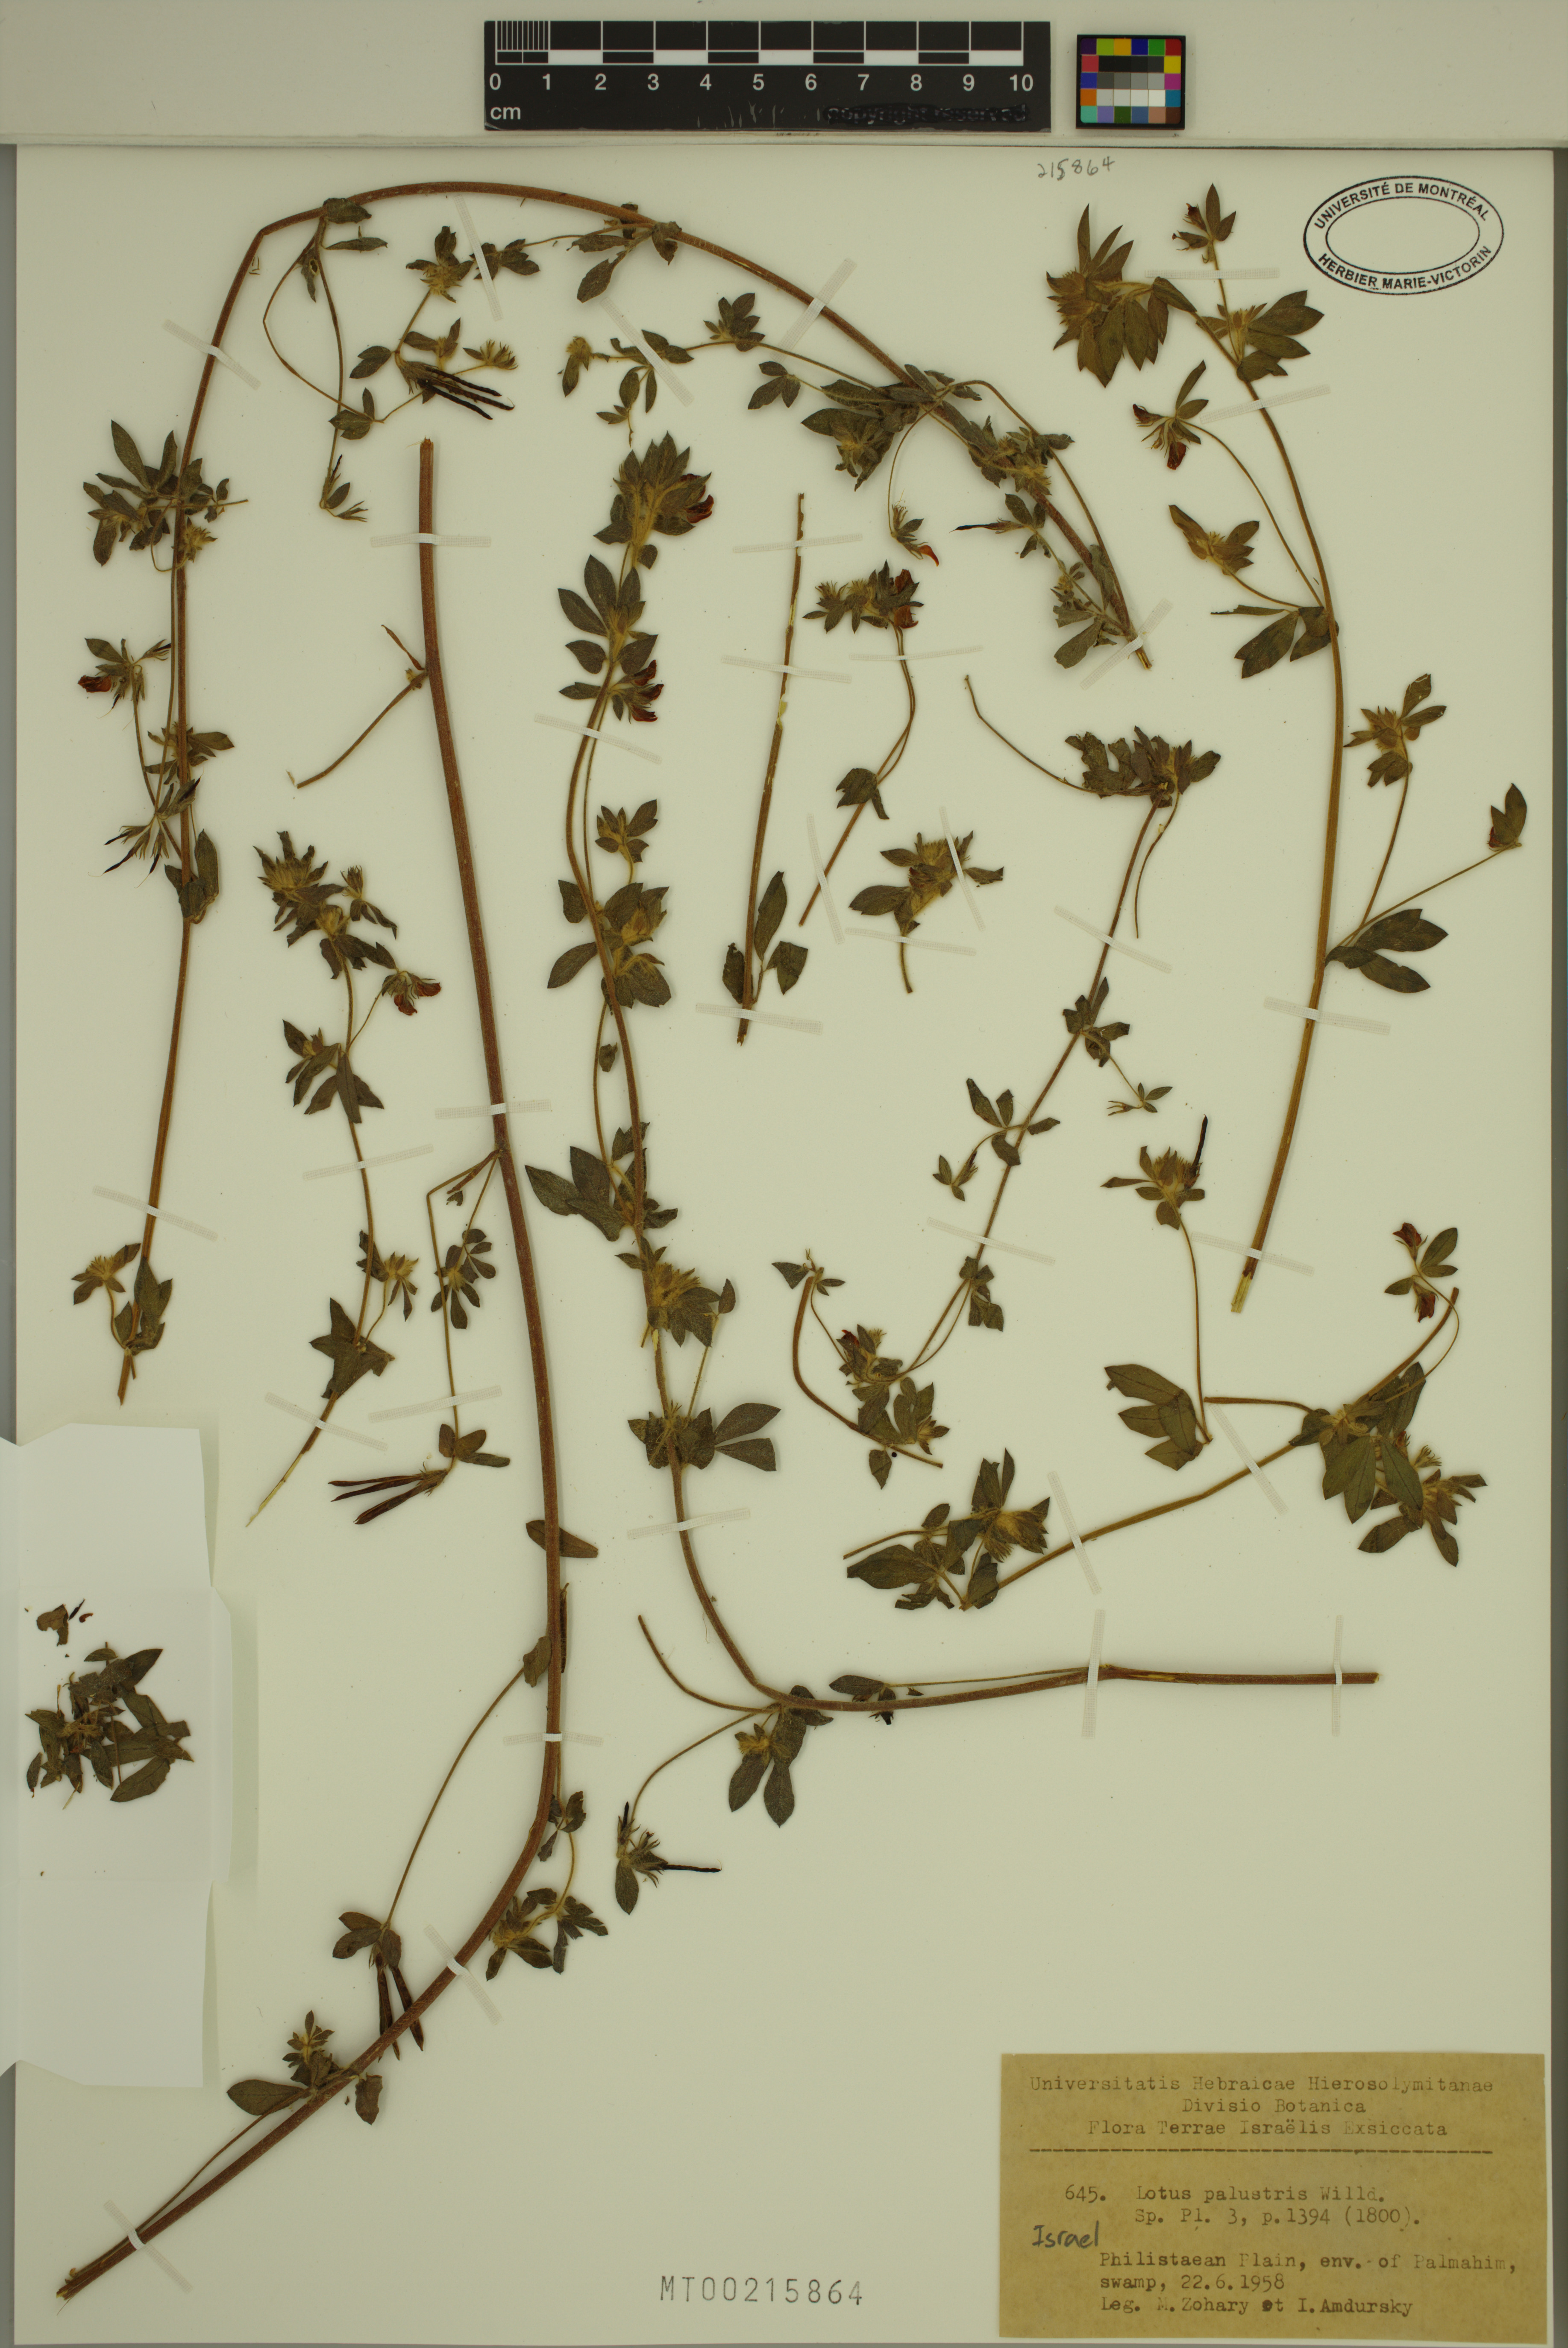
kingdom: Plantae
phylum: Tracheophyta
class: Magnoliopsida
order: Fabales
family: Fabaceae
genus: Lotus
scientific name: Lotus palustris
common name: Large birds-foot trefoil
